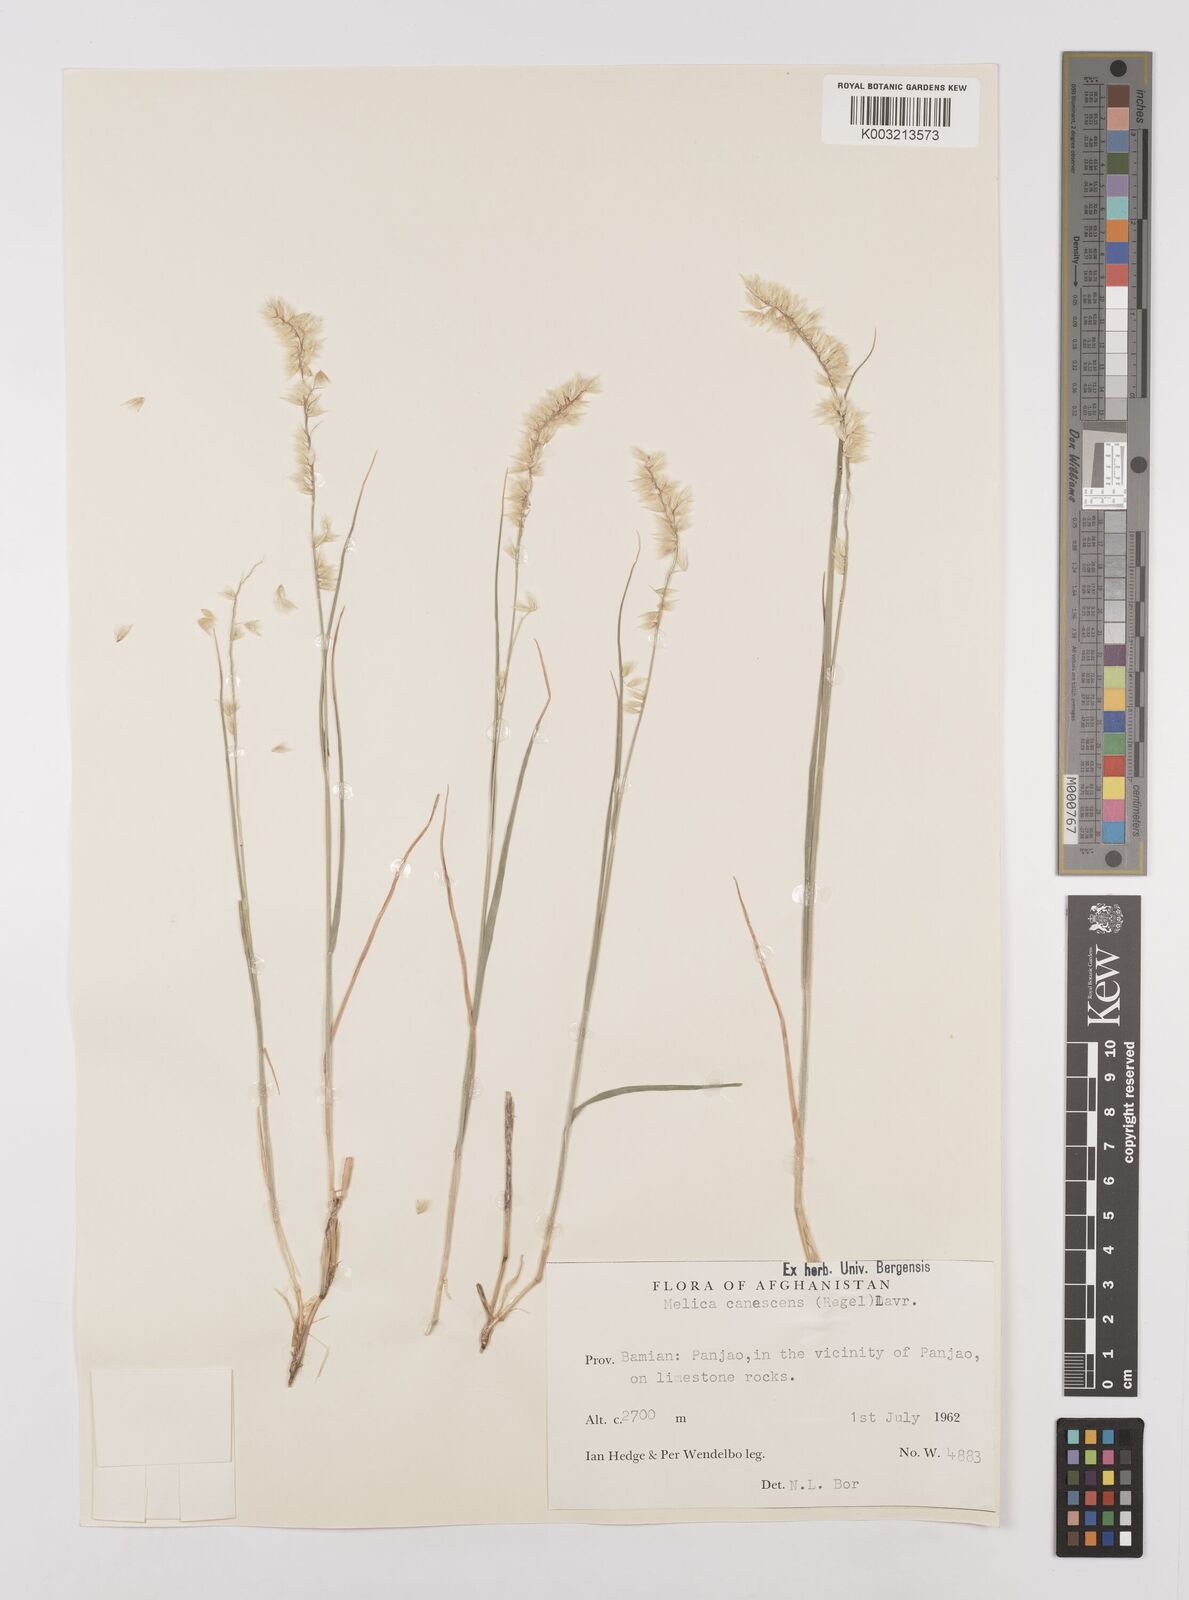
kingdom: Plantae
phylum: Tracheophyta
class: Liliopsida
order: Poales
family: Poaceae
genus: Melica
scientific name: Melica persica
